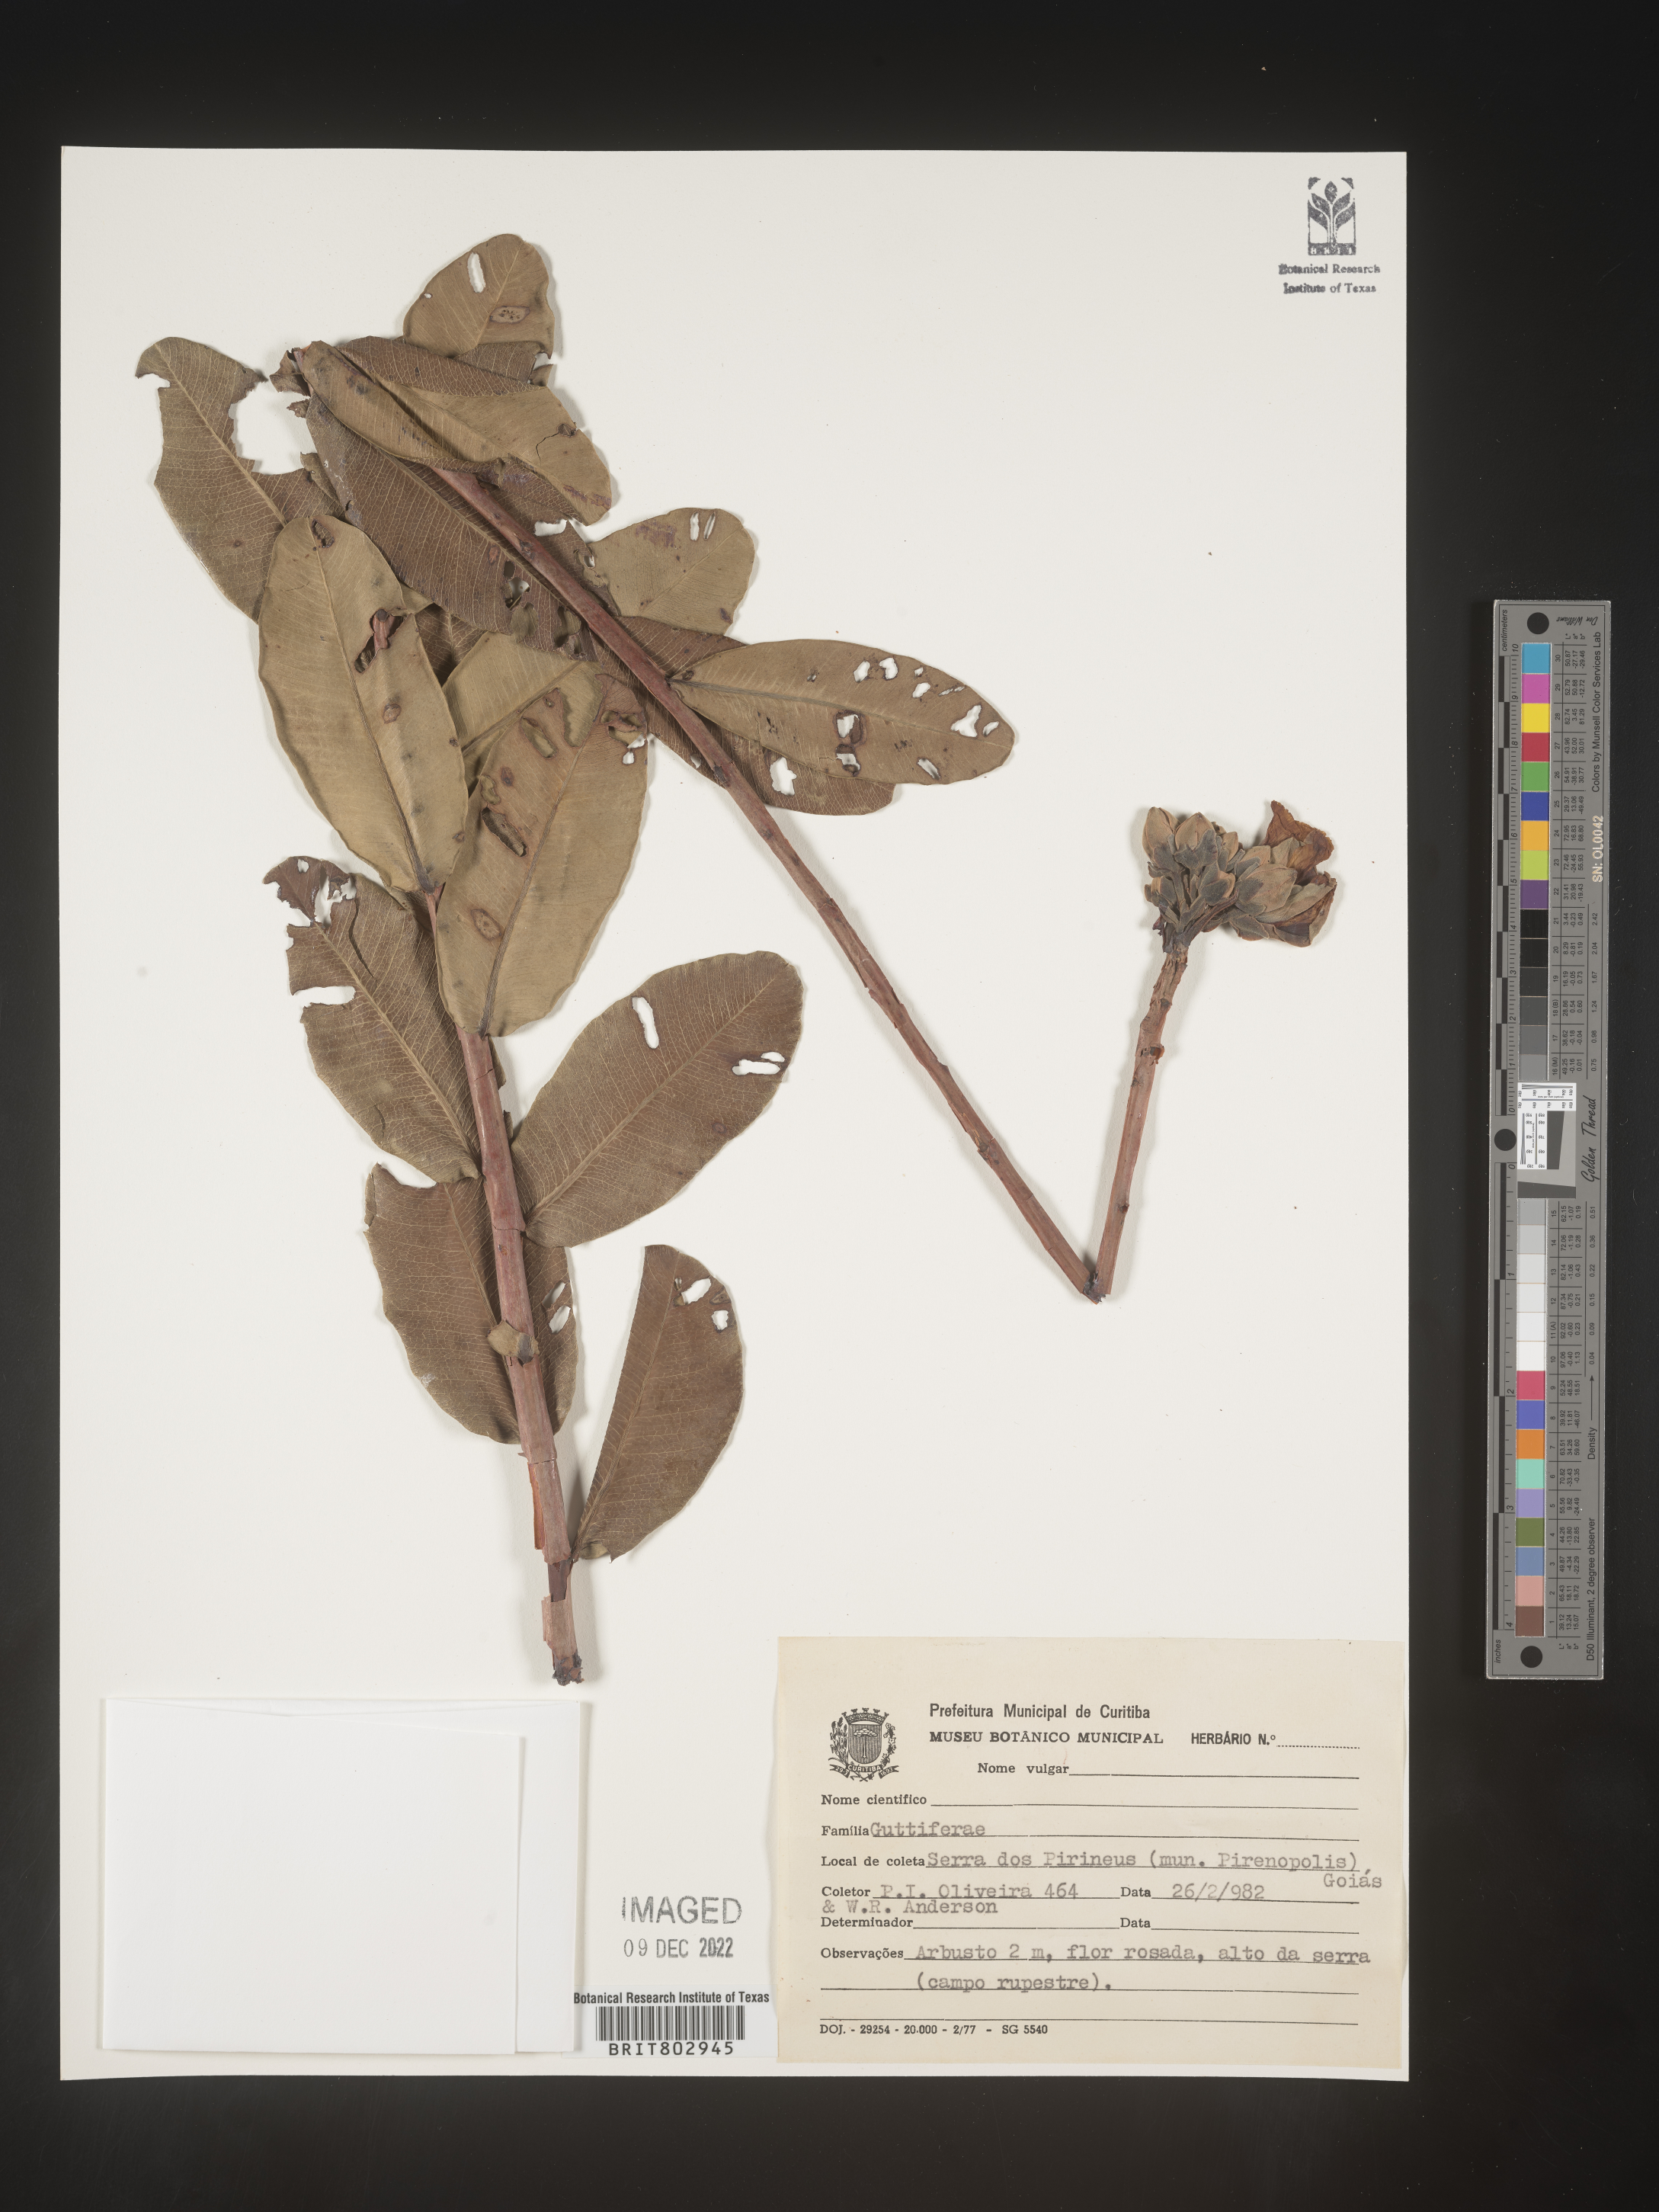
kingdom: Plantae
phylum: Tracheophyta
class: Magnoliopsida
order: Malpighiales
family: Calophyllaceae
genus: Kielmeyera
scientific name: Kielmeyera
